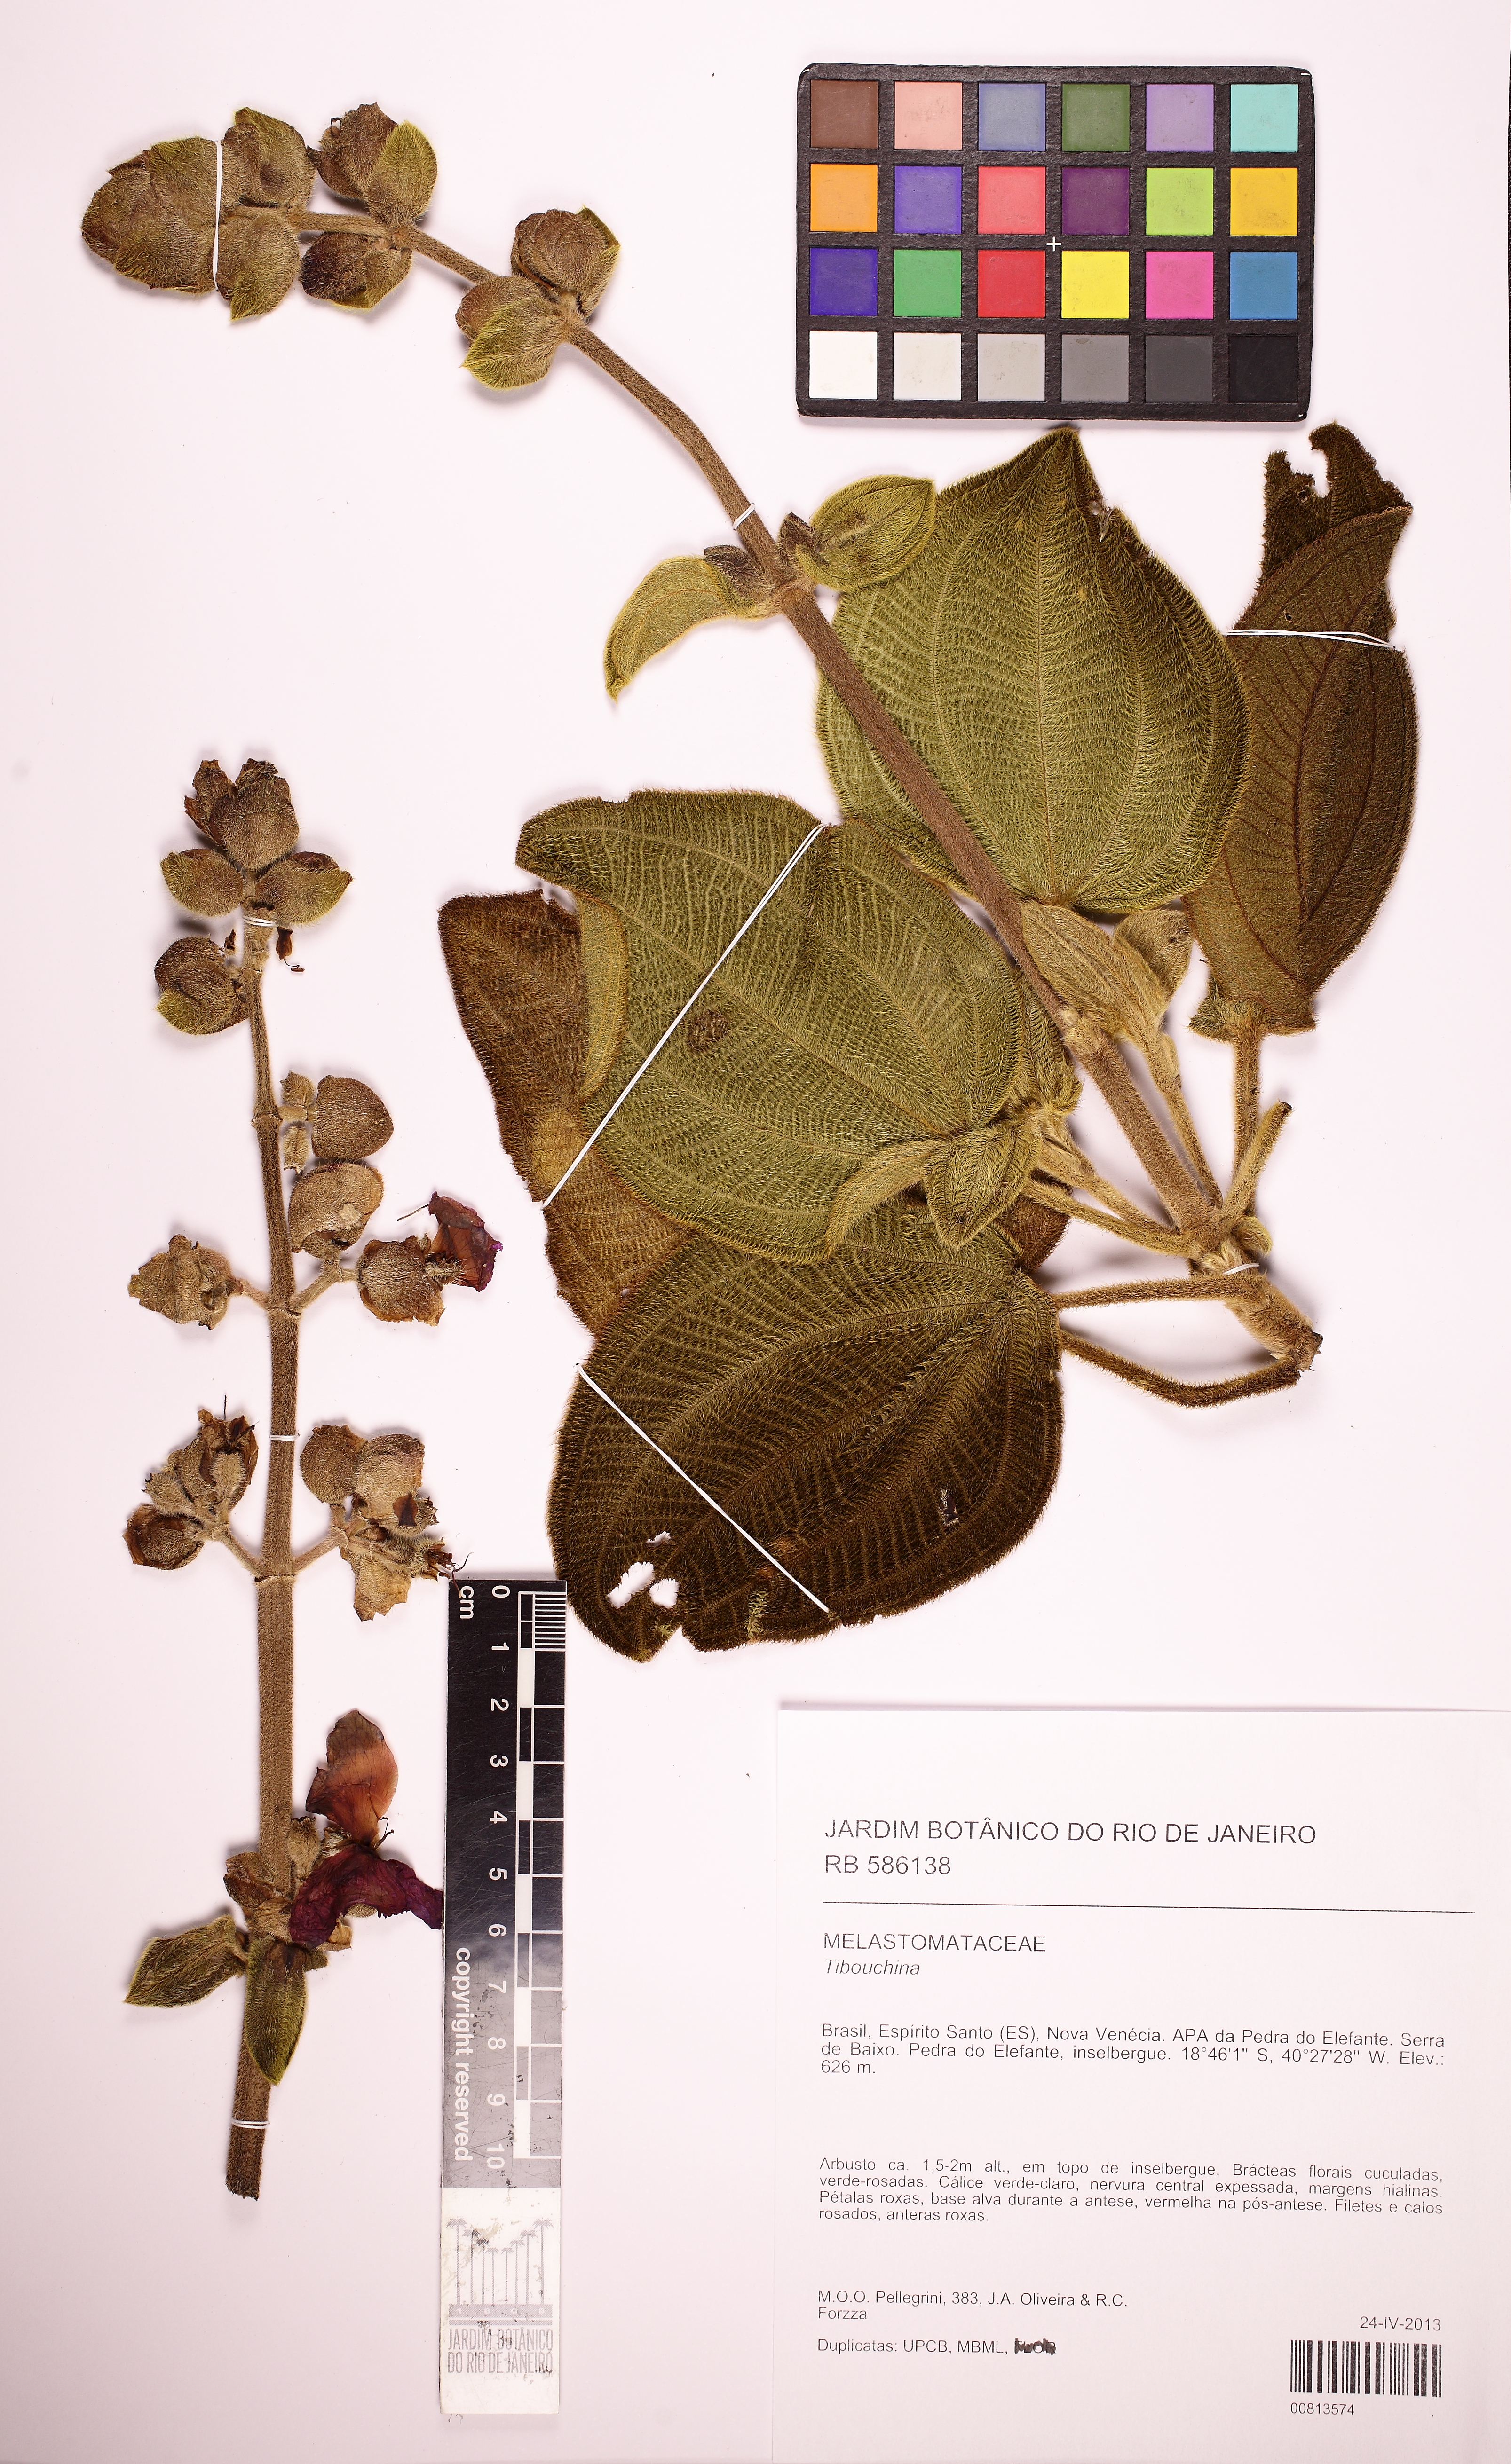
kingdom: Plantae
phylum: Tracheophyta
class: Magnoliopsida
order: Myrtales
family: Melastomataceae
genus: Pleroma
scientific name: Pleroma cucullatum
